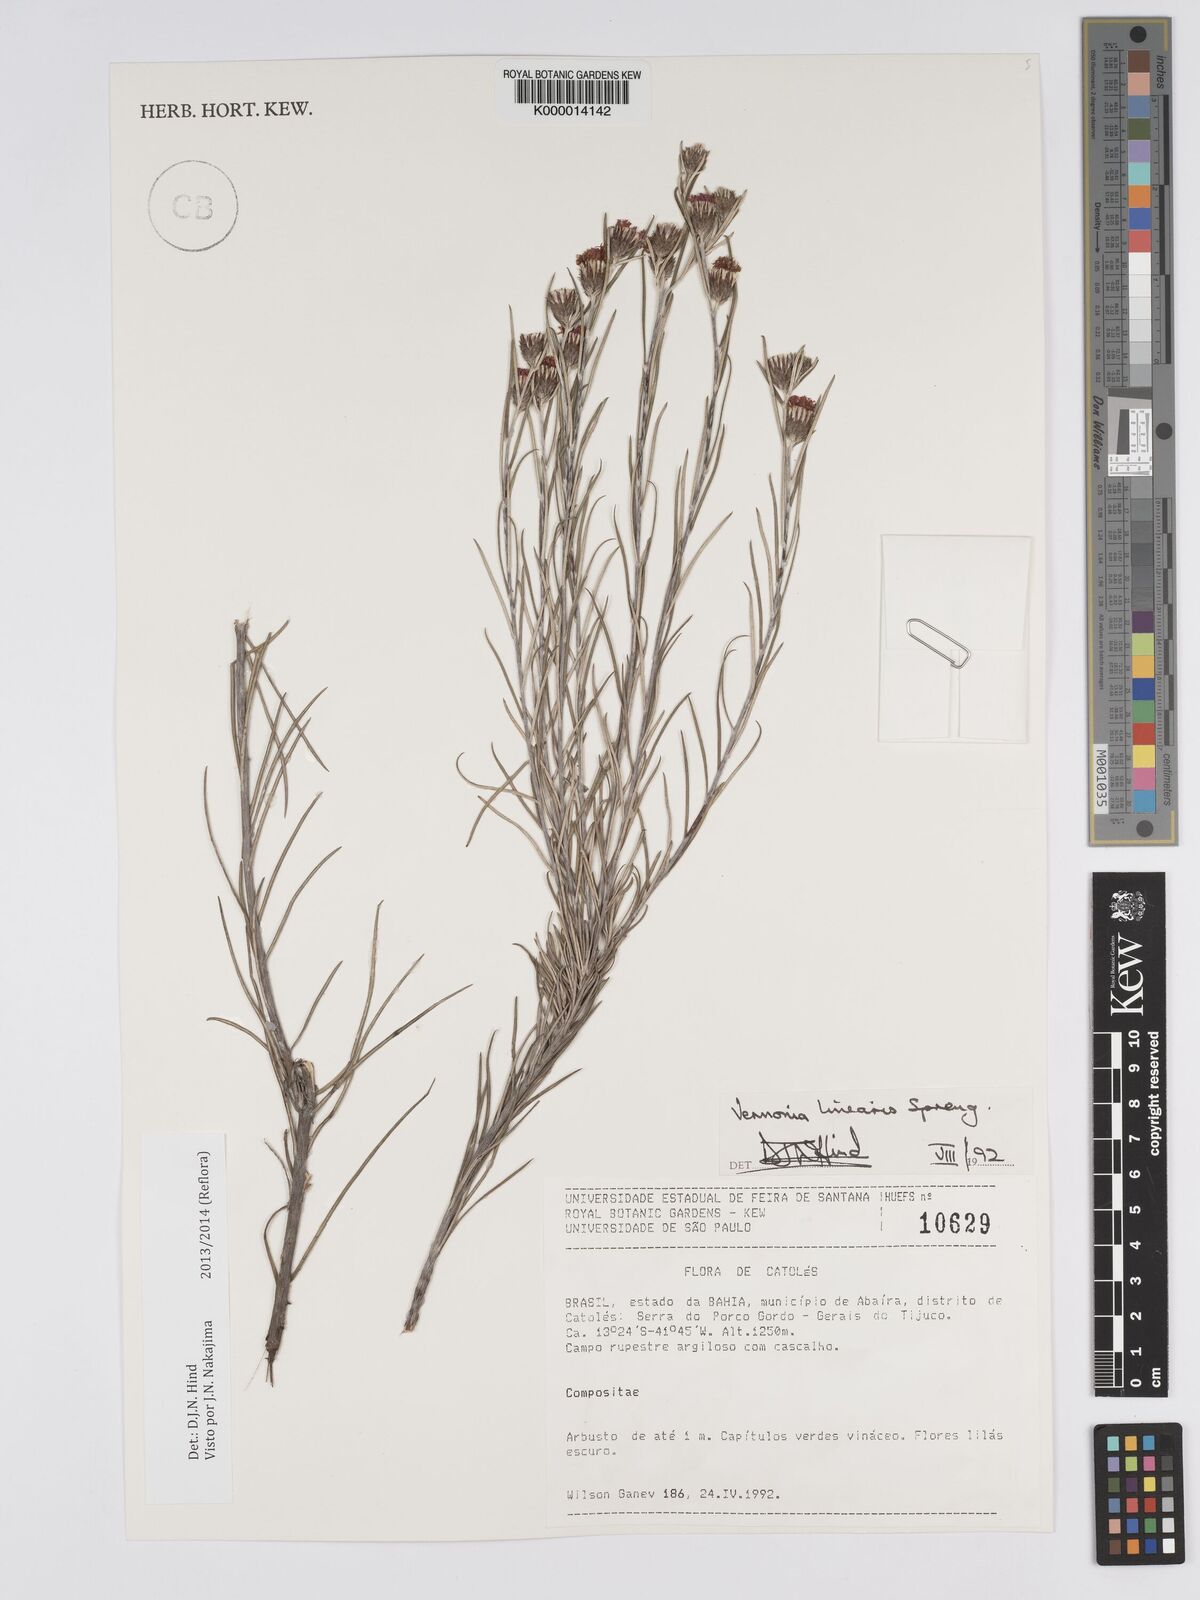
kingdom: Plantae
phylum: Tracheophyta
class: Magnoliopsida
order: Asterales
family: Asteraceae
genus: Lessingianthus
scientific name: Lessingianthus linearis
